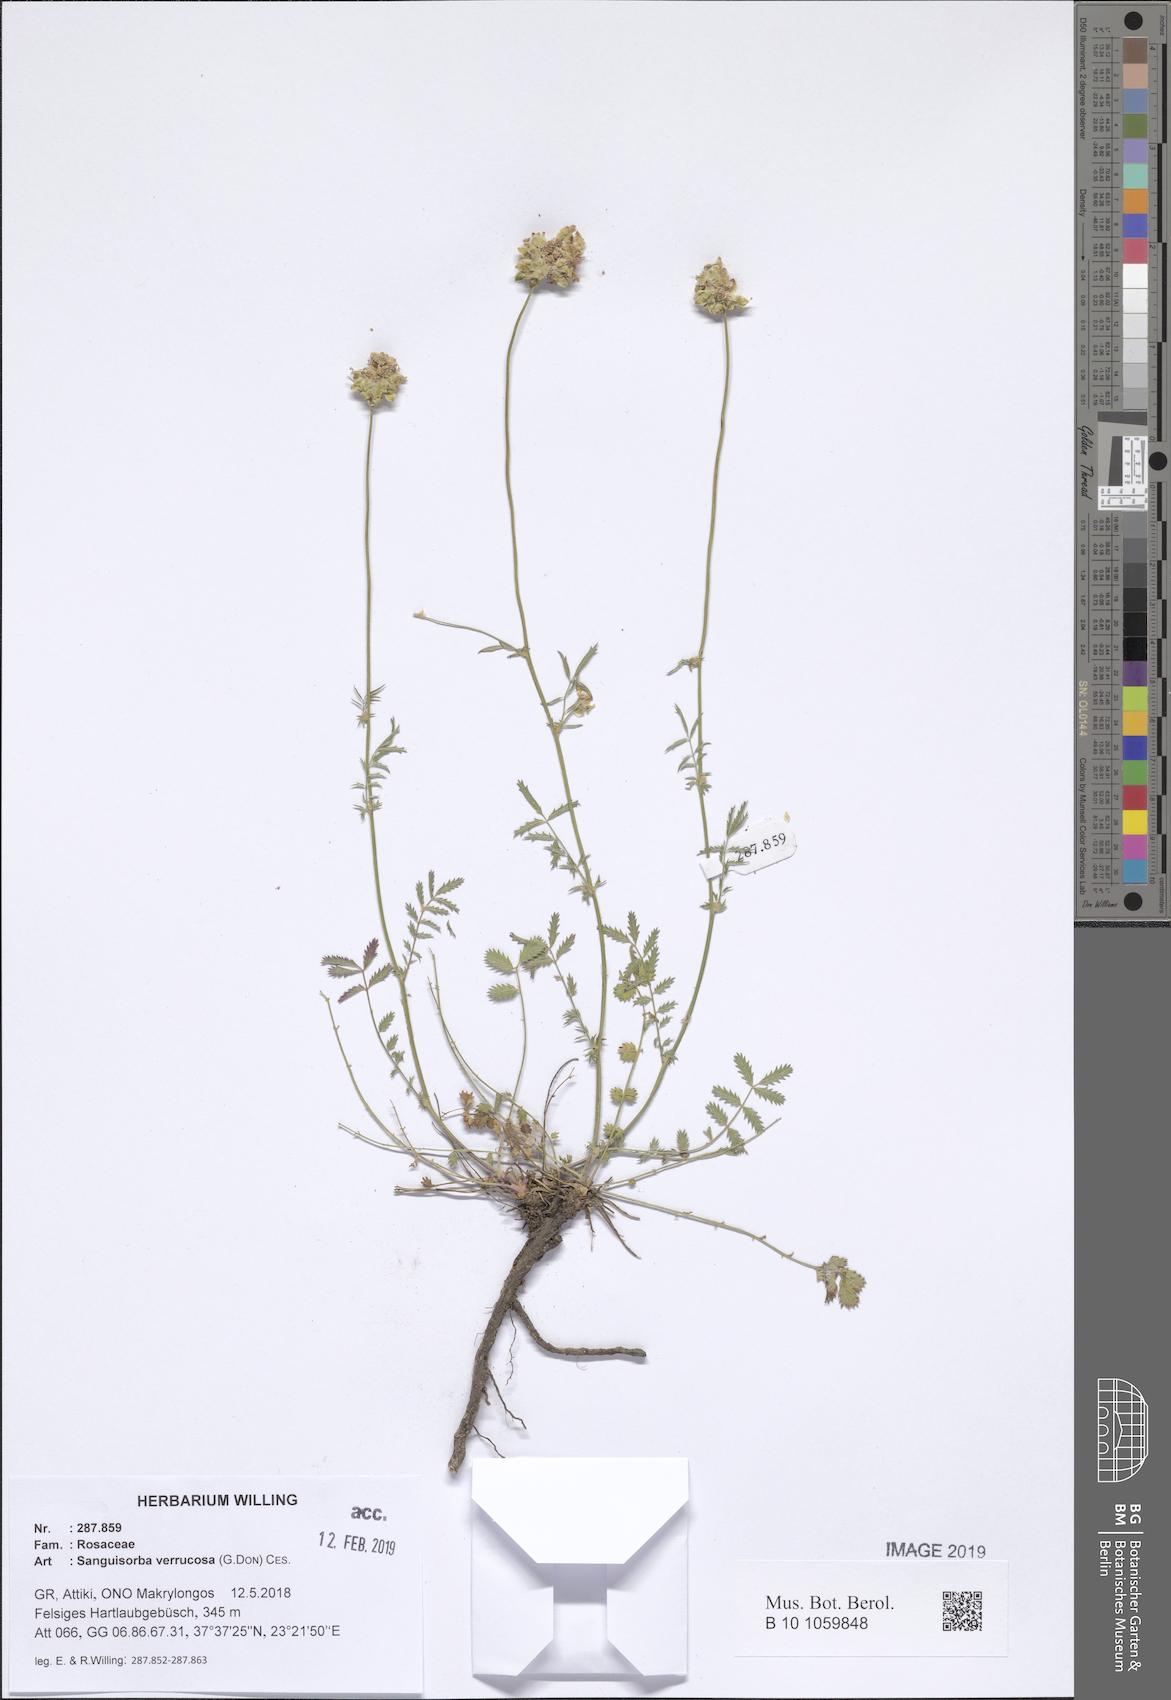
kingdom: Plantae
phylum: Tracheophyta
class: Magnoliopsida
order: Rosales
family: Rosaceae
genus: Poterium
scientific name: Poterium verrucosum
